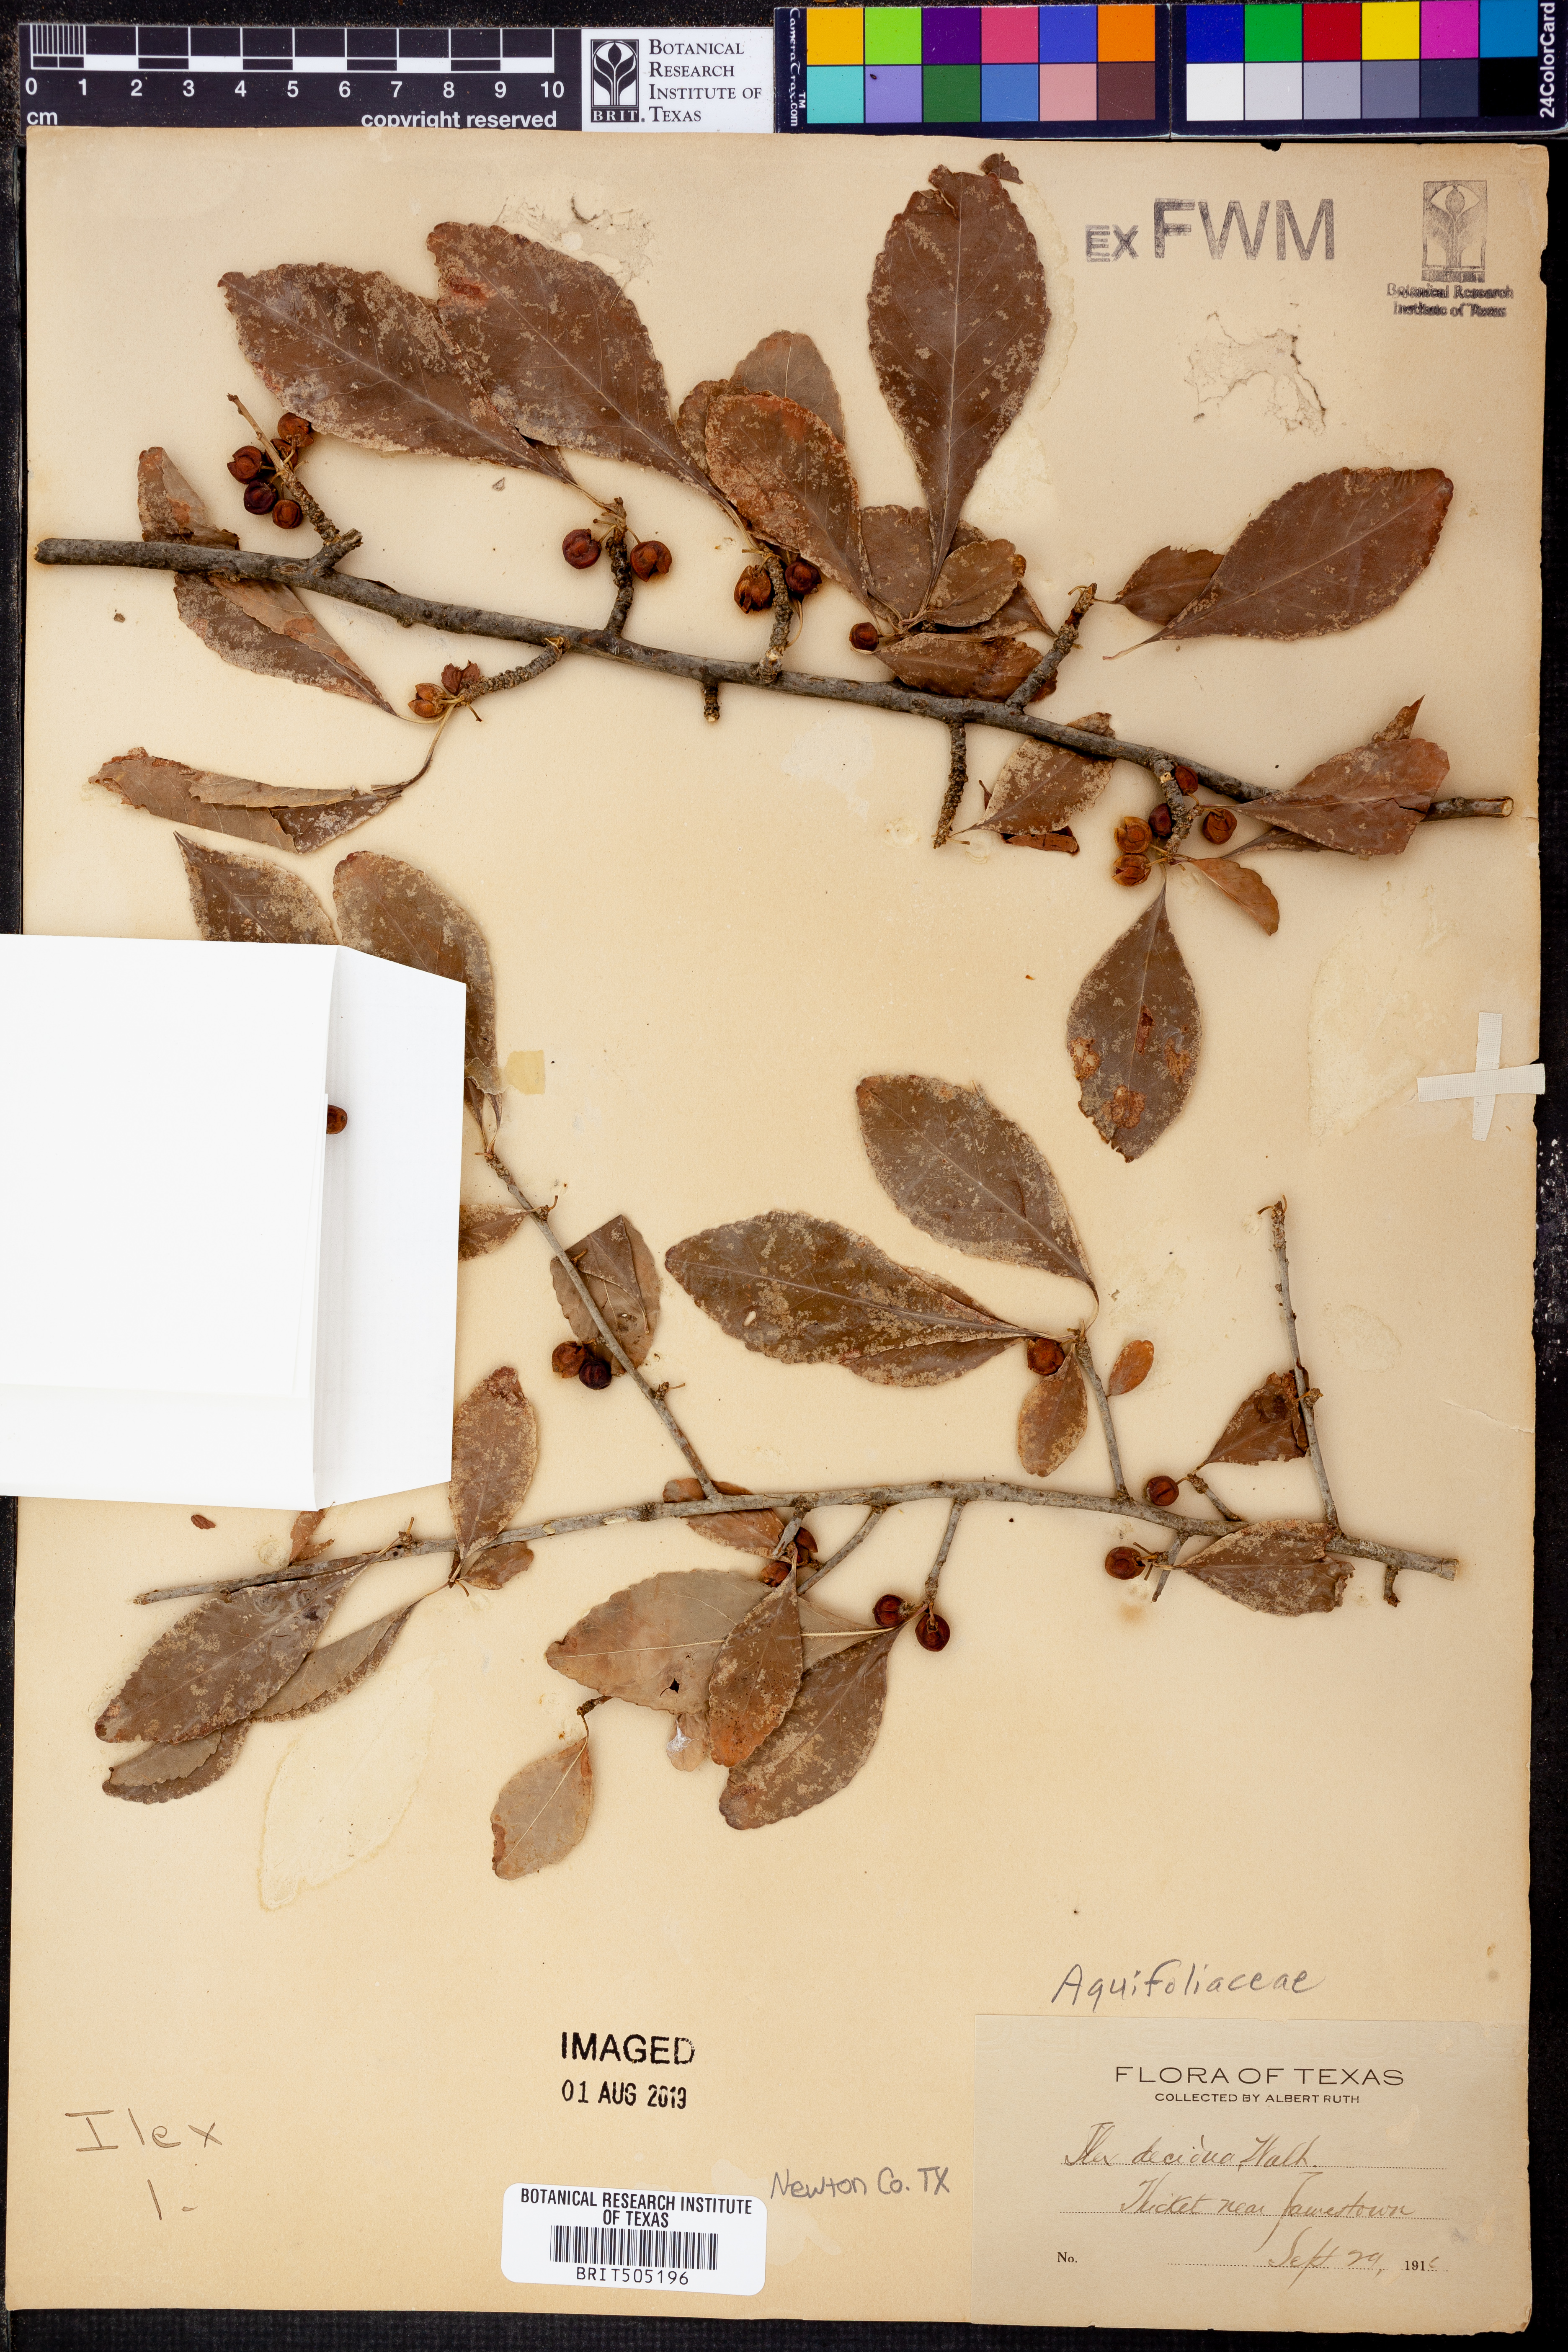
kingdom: Plantae
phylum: Tracheophyta
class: Magnoliopsida
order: Aquifoliales
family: Aquifoliaceae
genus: Ilex
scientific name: Ilex decidua
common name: Possum-haw
